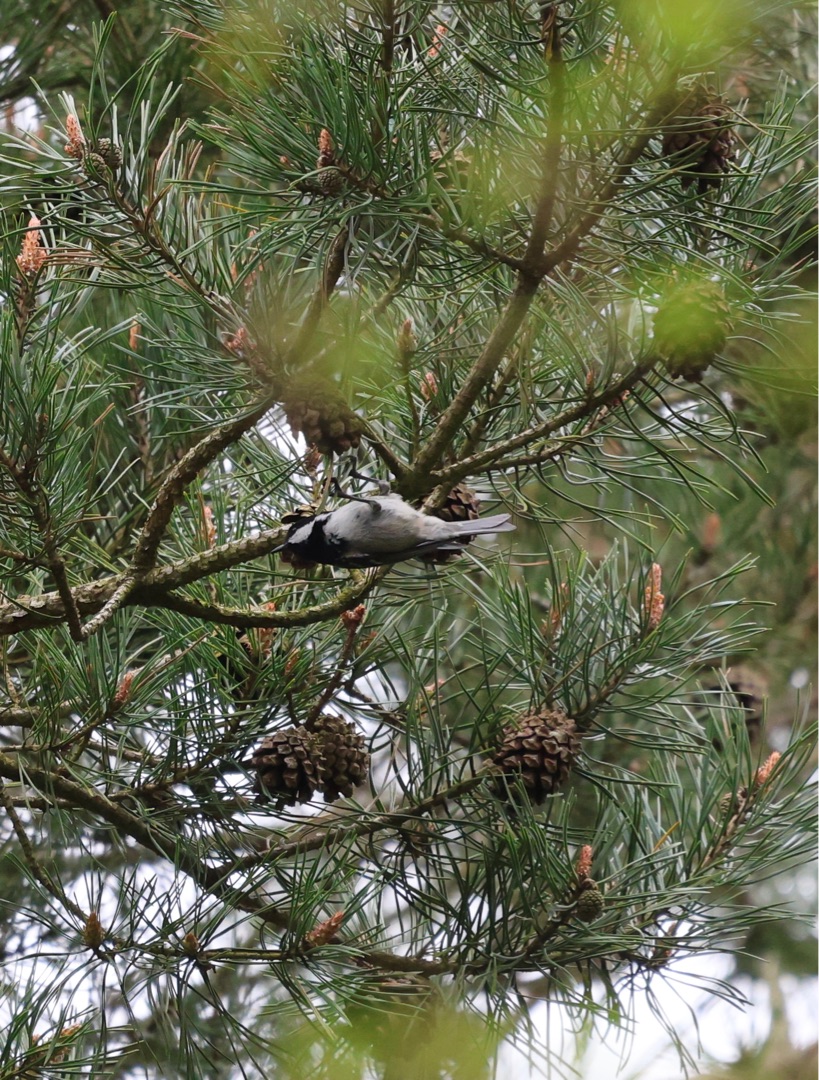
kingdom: Animalia
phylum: Chordata
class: Aves
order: Passeriformes
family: Paridae
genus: Periparus
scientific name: Periparus ater
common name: Sortmejse
